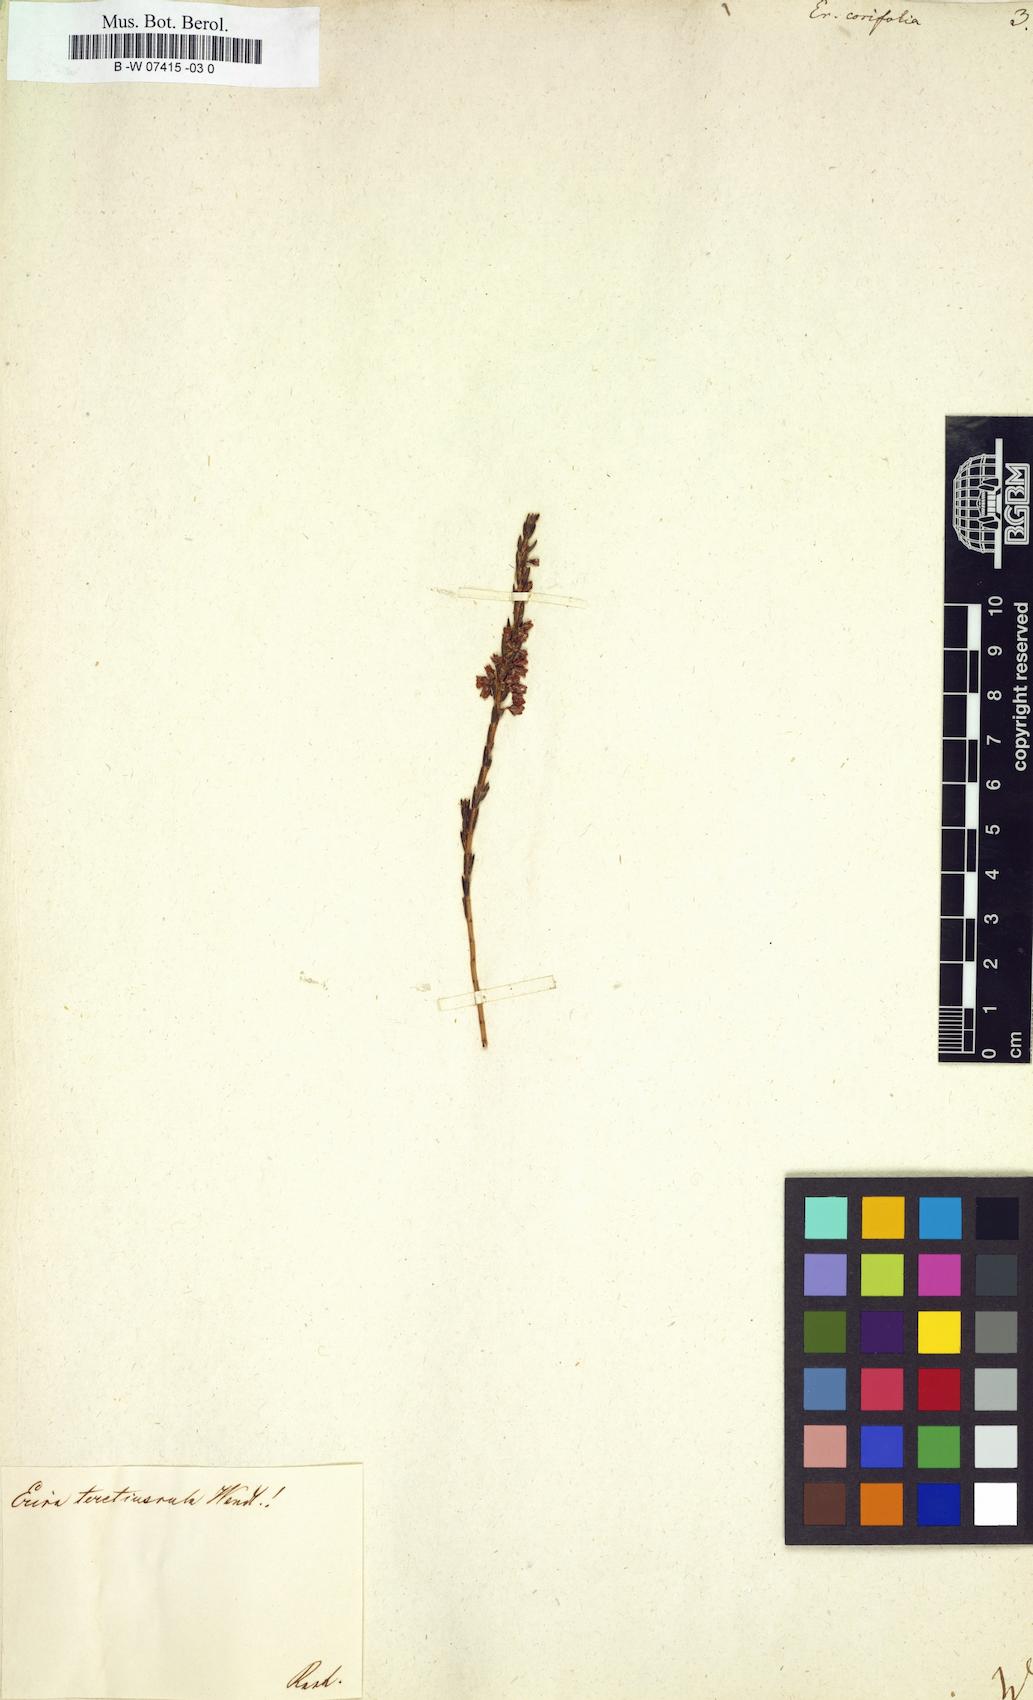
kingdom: Plantae
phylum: Tracheophyta
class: Magnoliopsida
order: Ericales
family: Ericaceae
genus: Erica
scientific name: Erica corifolia
